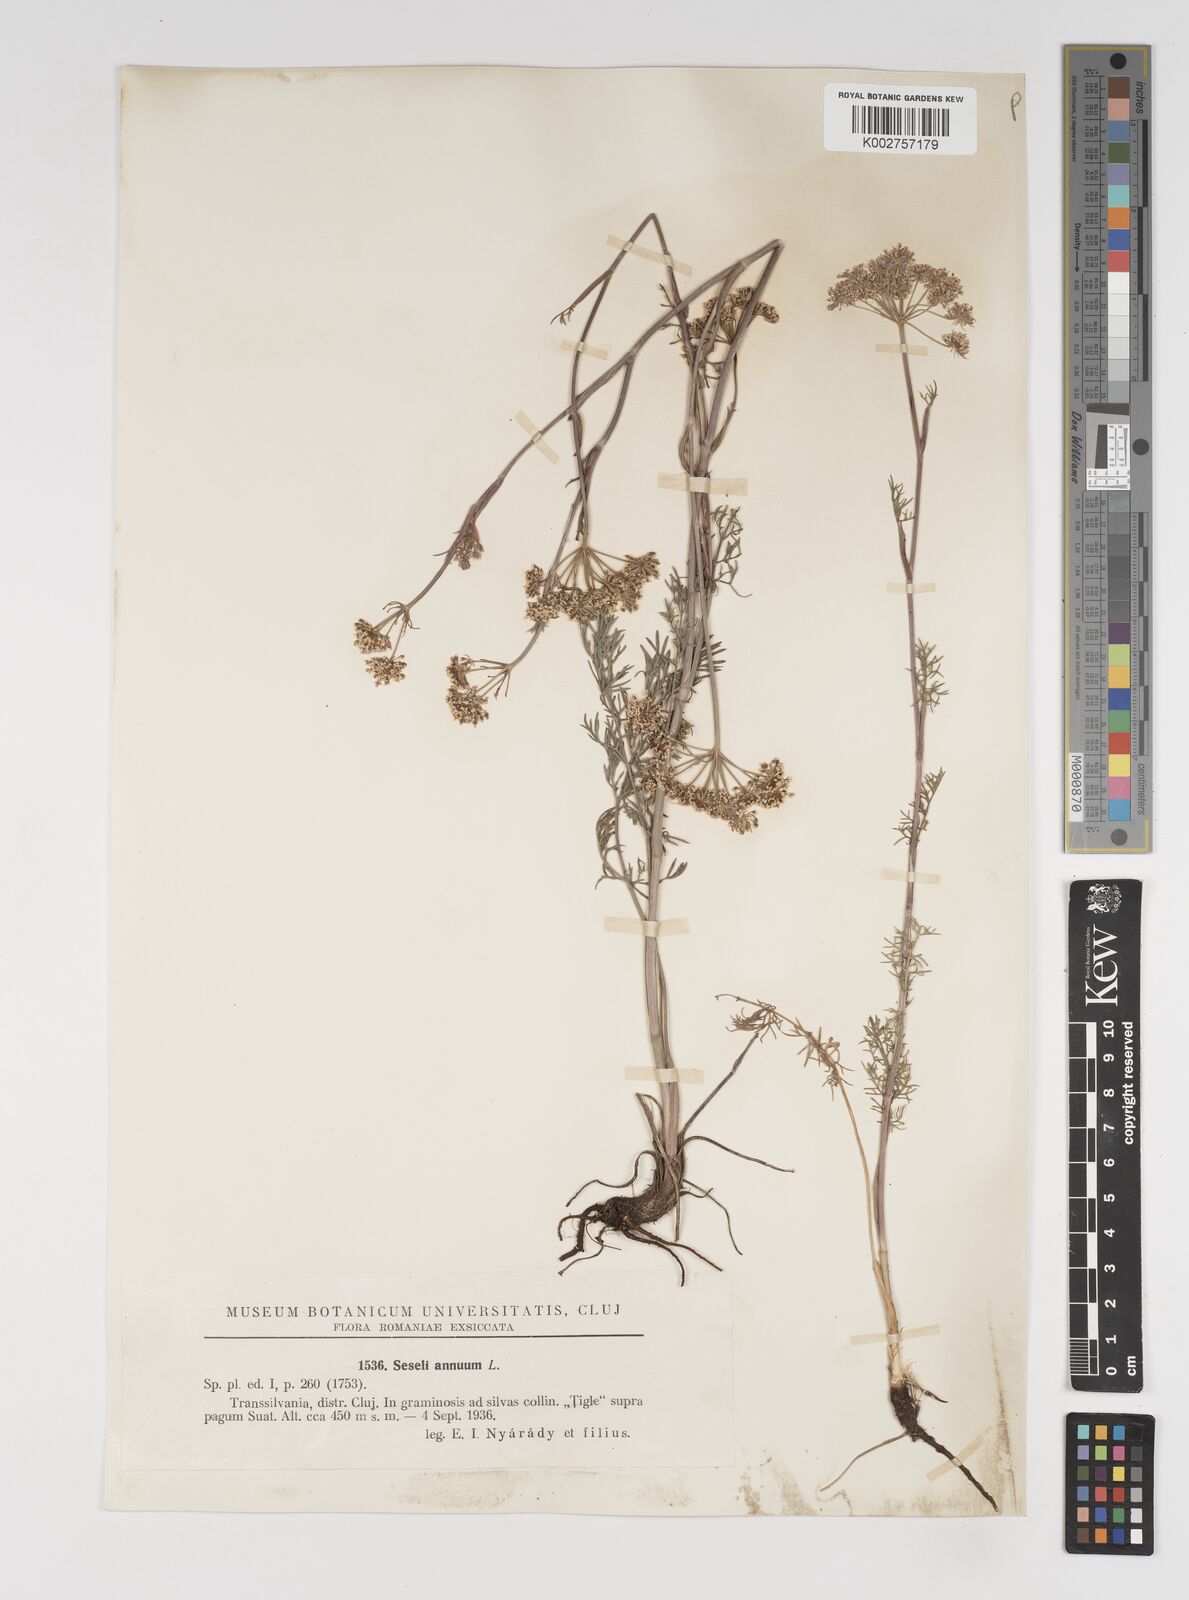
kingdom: Plantae
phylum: Tracheophyta
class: Magnoliopsida
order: Apiales
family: Apiaceae
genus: Seseli
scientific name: Seseli annuum
